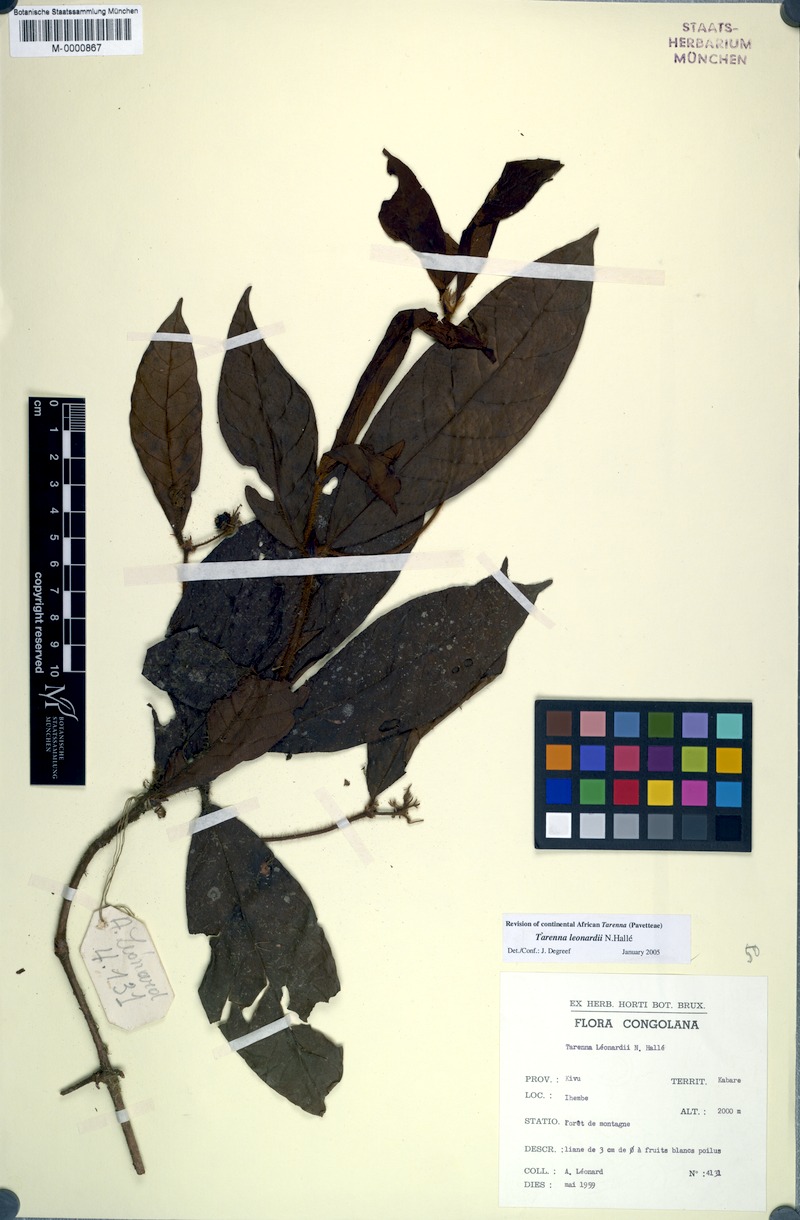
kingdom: Plantae
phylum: Tracheophyta
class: Magnoliopsida
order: Gentianales
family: Rubiaceae
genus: Tarenna
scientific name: Tarenna leonardii
